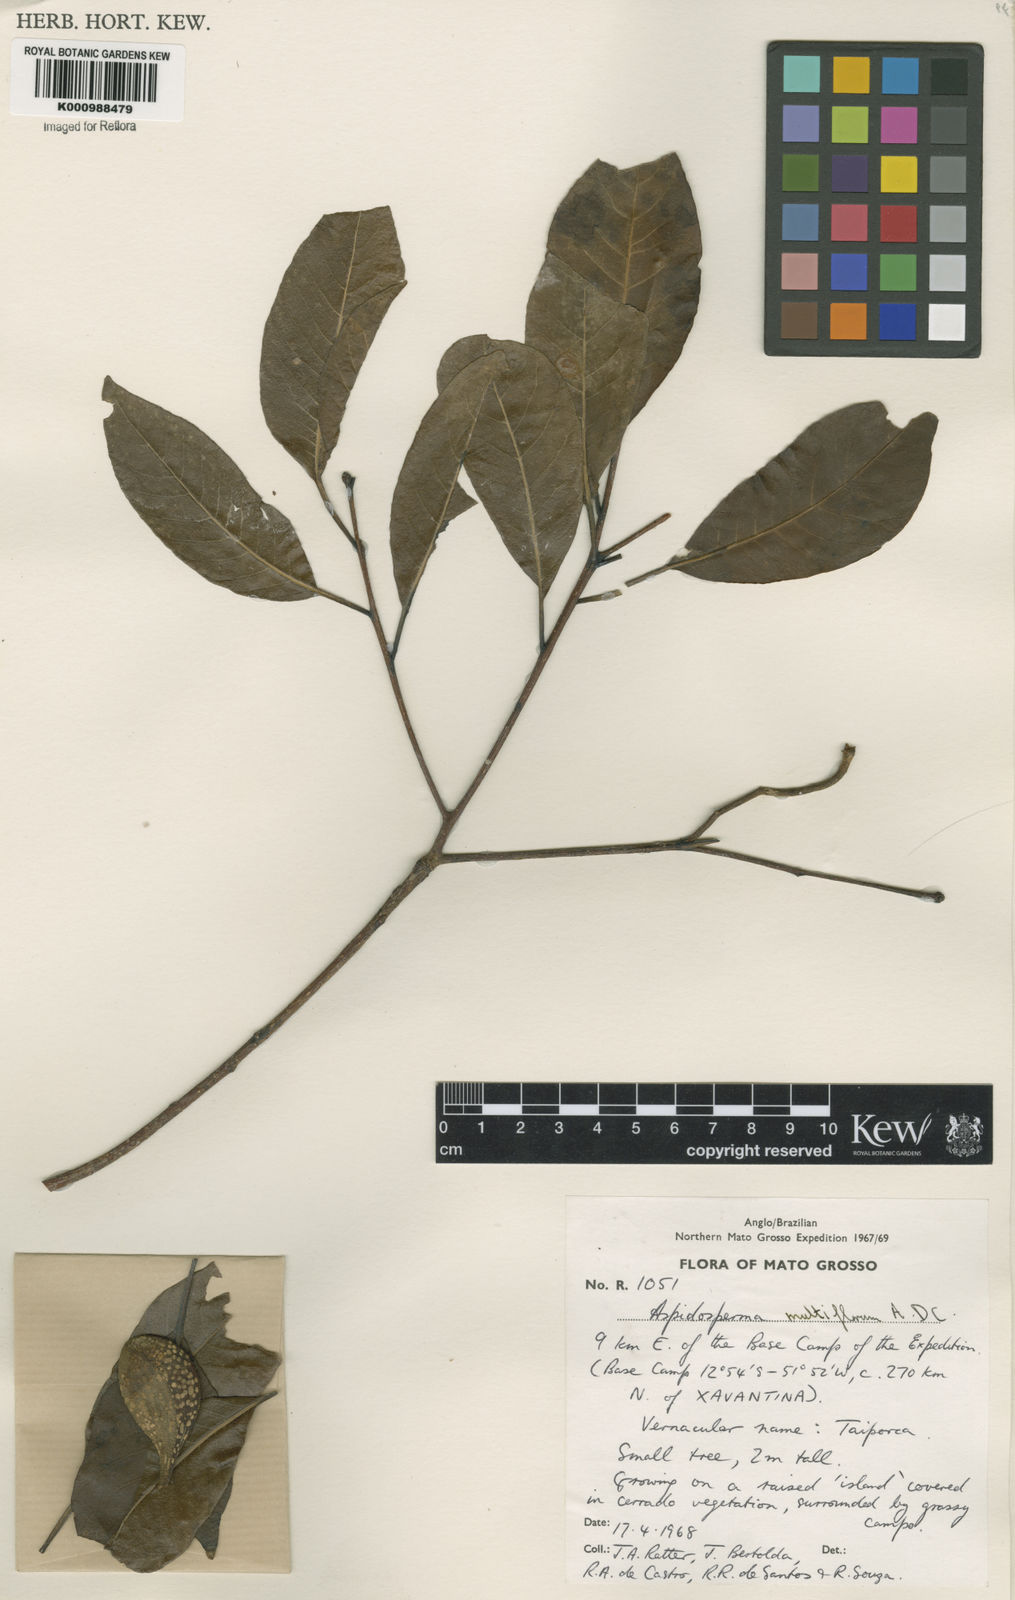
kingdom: Plantae
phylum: Tracheophyta
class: Magnoliopsida
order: Gentianales
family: Apocynaceae
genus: Aspidosperma
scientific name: Aspidosperma multiflorum
